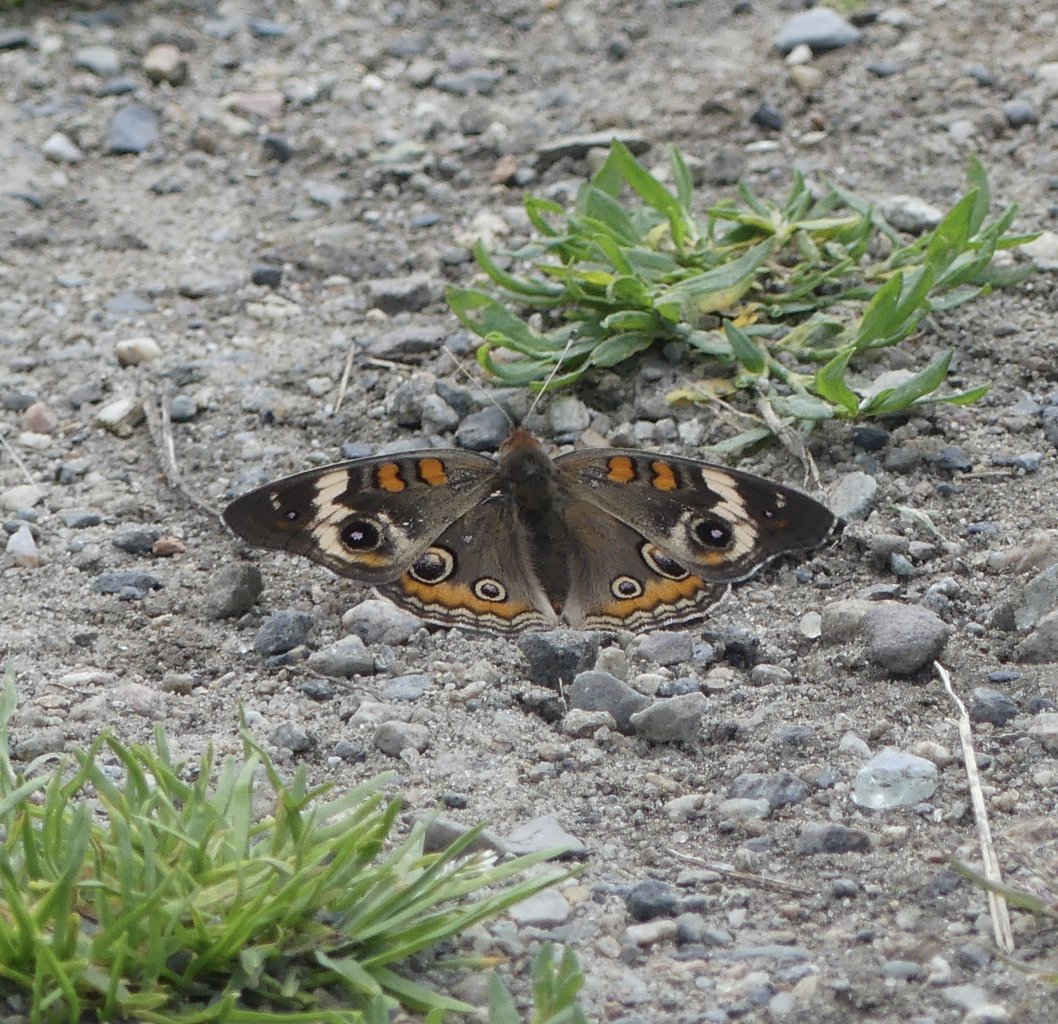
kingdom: Animalia
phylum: Arthropoda
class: Insecta
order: Lepidoptera
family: Nymphalidae
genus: Junonia
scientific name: Junonia coenia
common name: Common Buckeye
